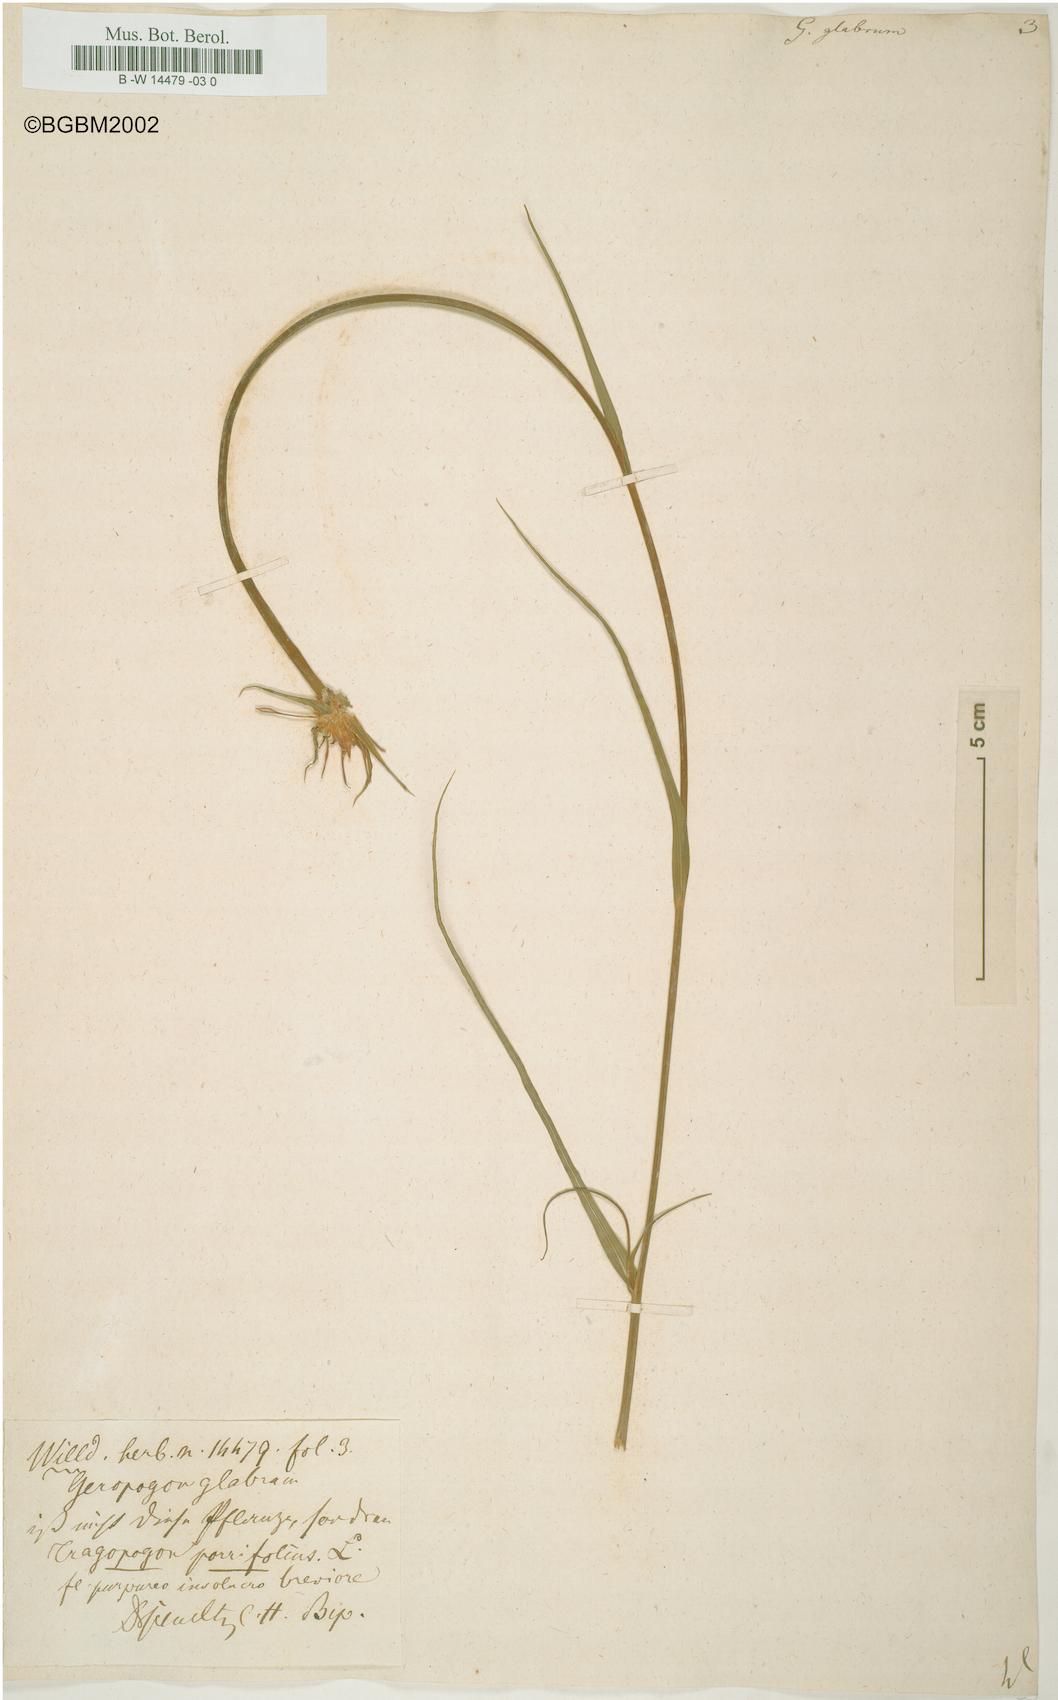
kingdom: Plantae
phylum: Tracheophyta
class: Magnoliopsida
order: Asterales
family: Asteraceae
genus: Geropogon
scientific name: Geropogon hybridus
